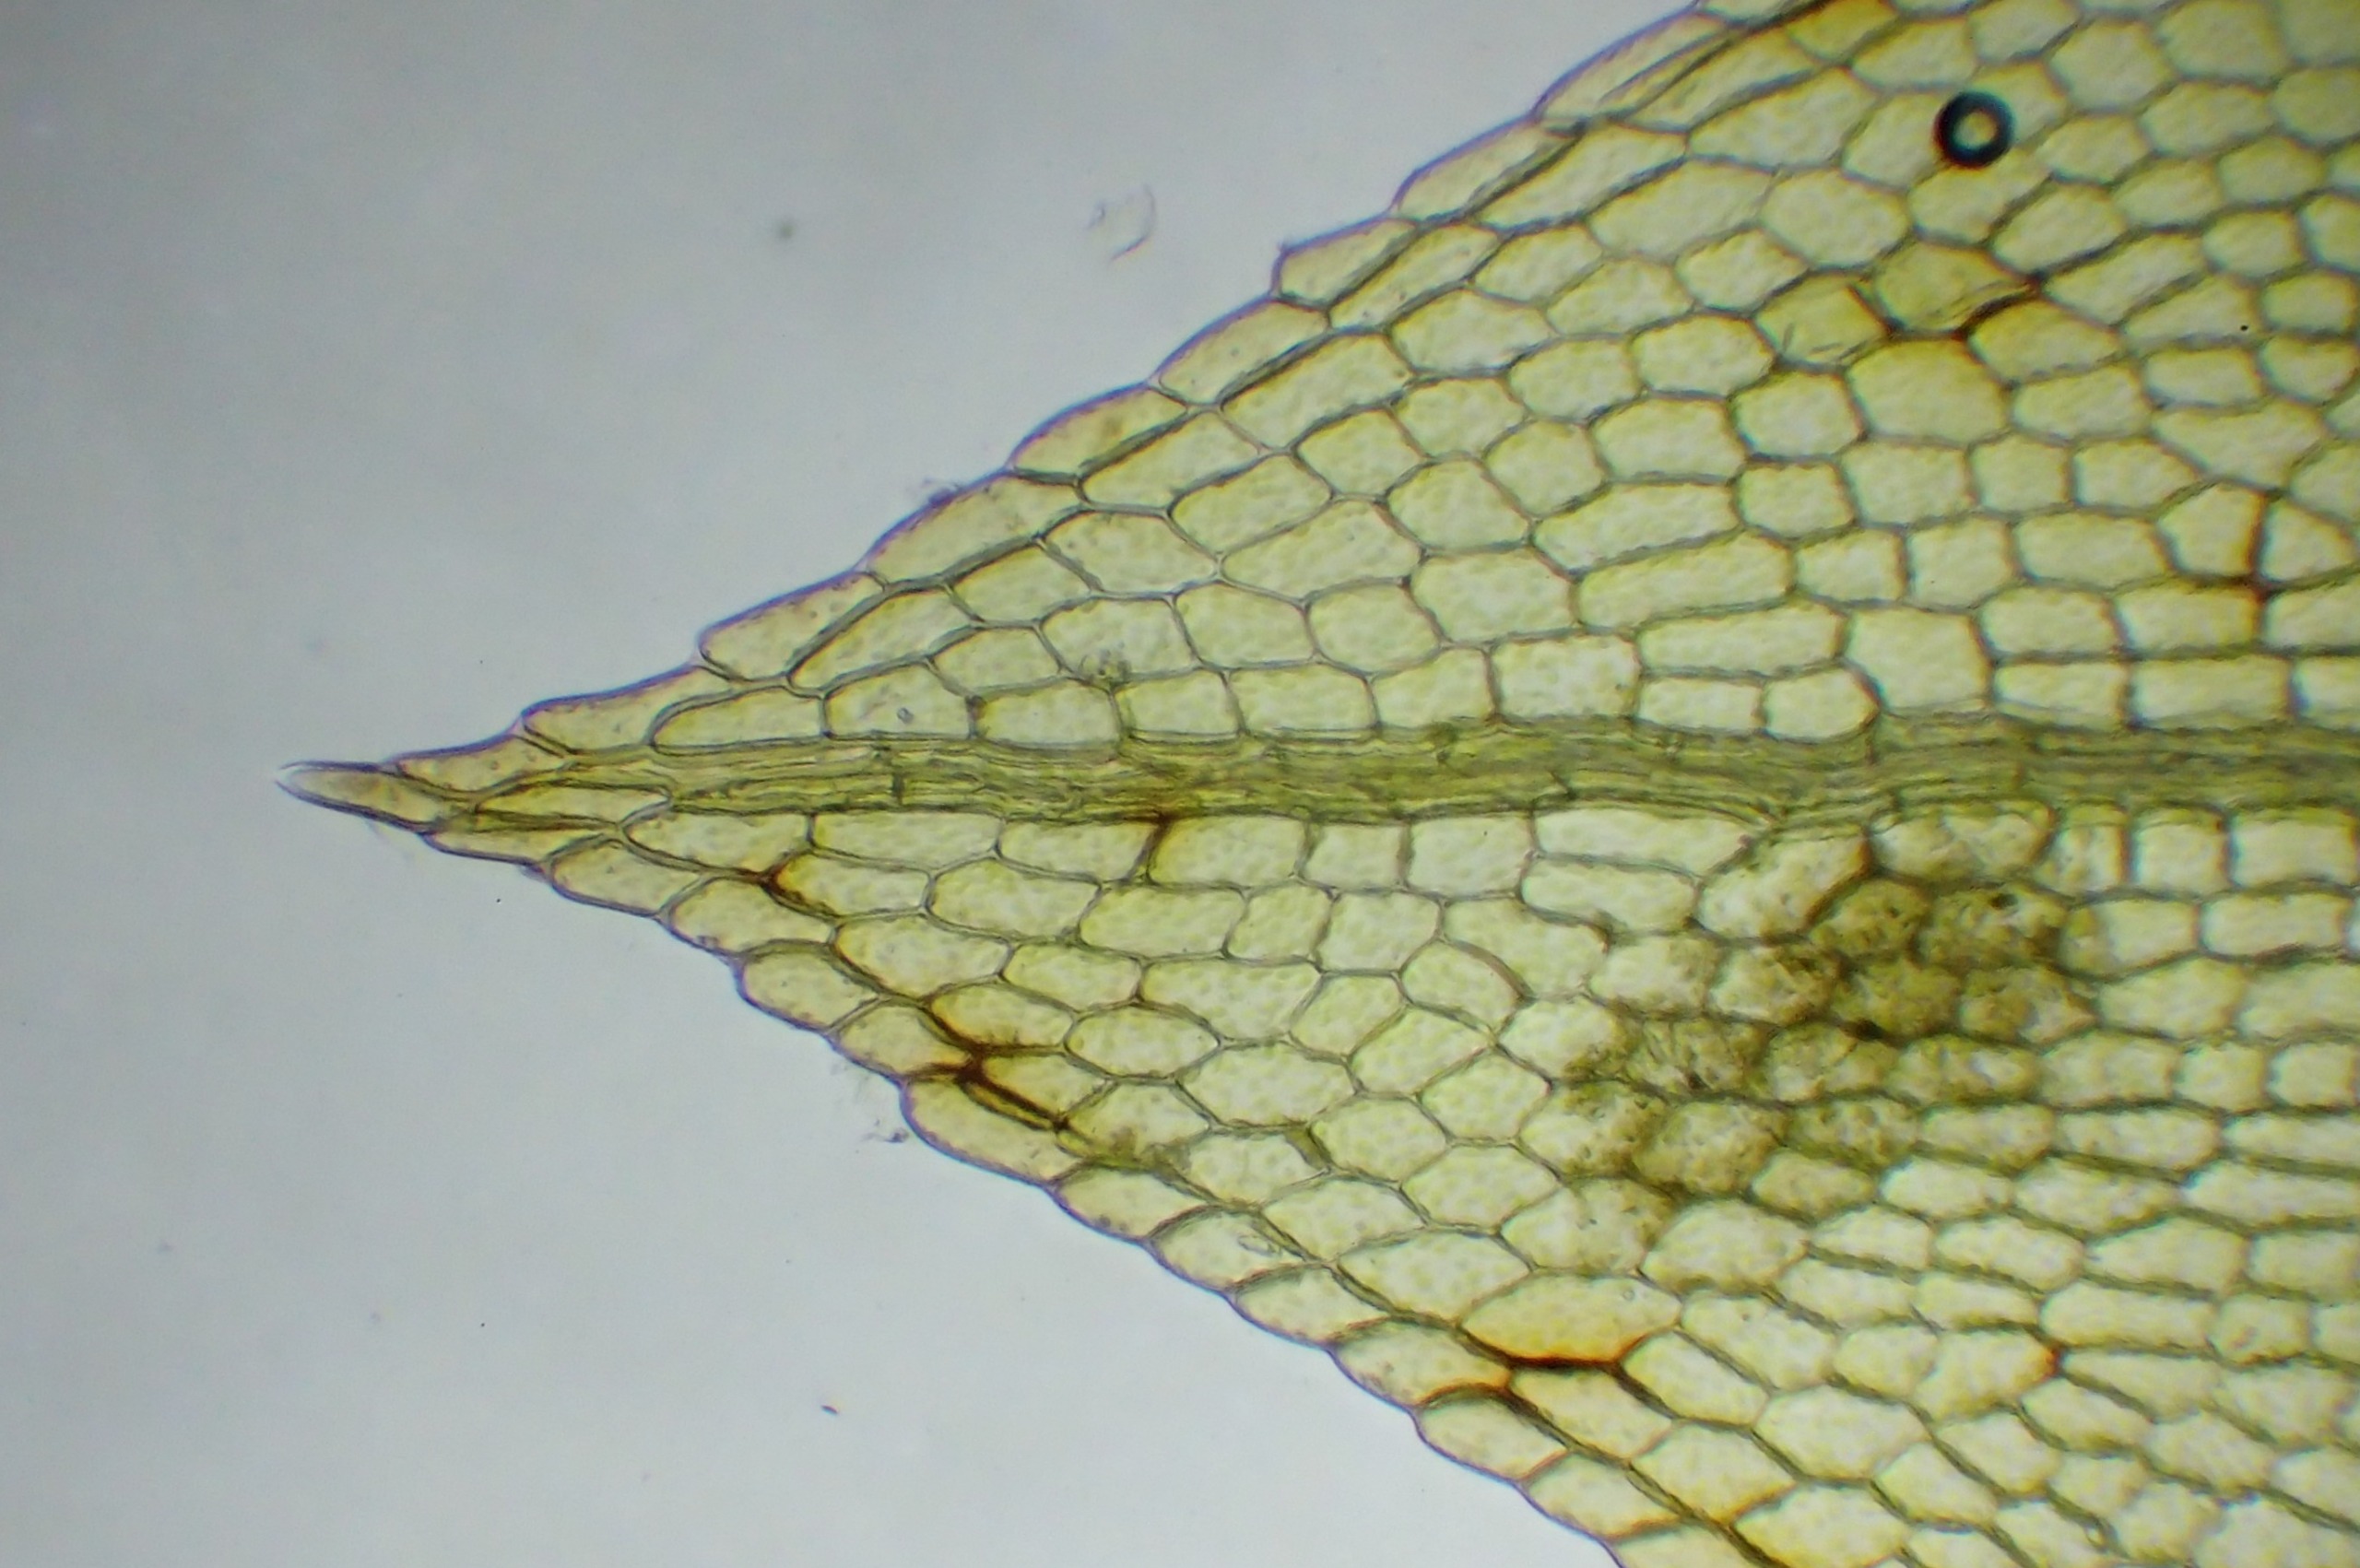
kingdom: Plantae
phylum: Bryophyta
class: Bryopsida
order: Funariales
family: Funariaceae
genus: Physcomitrium
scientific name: Physcomitrium pyriforme
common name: Almindelig pærekapsel
